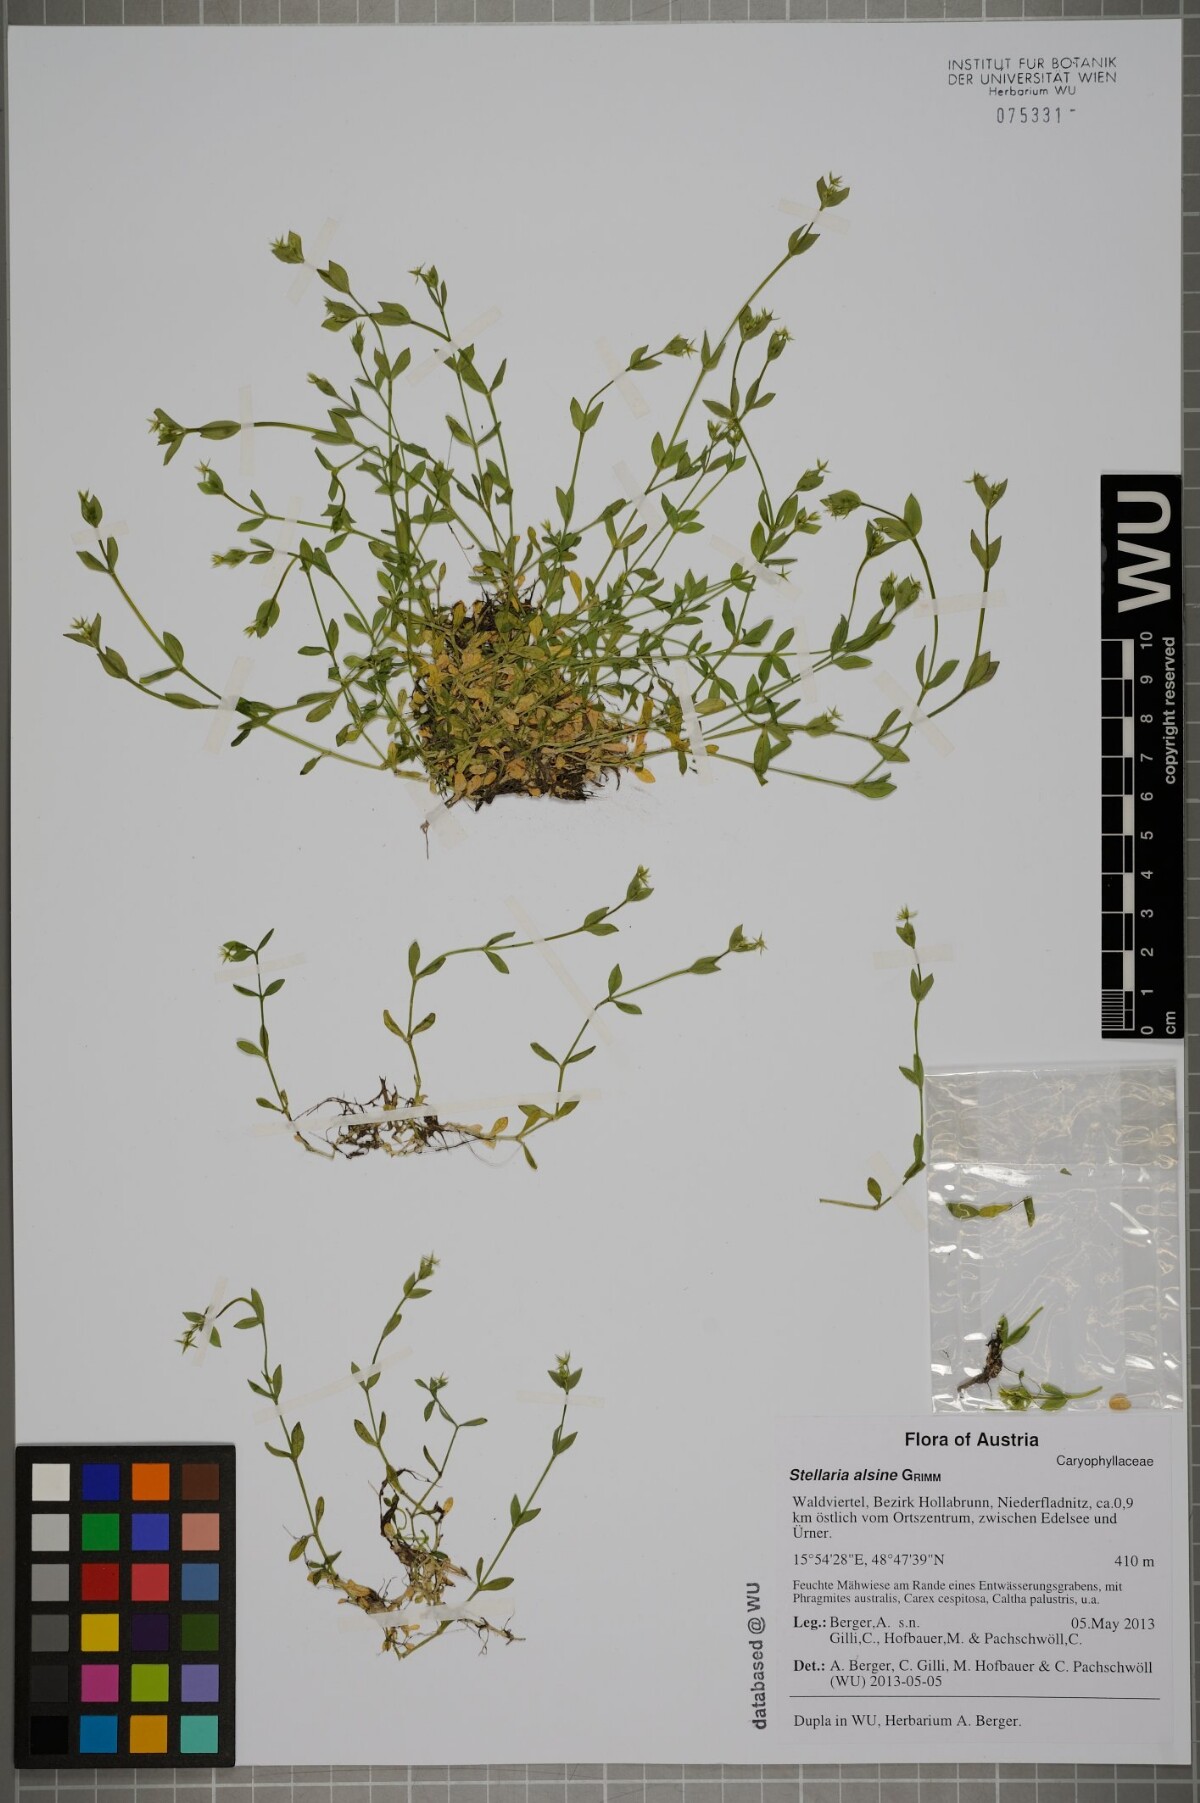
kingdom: Plantae
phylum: Tracheophyta
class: Magnoliopsida
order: Caryophyllales
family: Caryophyllaceae
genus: Stellaria
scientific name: Stellaria alsine
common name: Bog stitchwort
